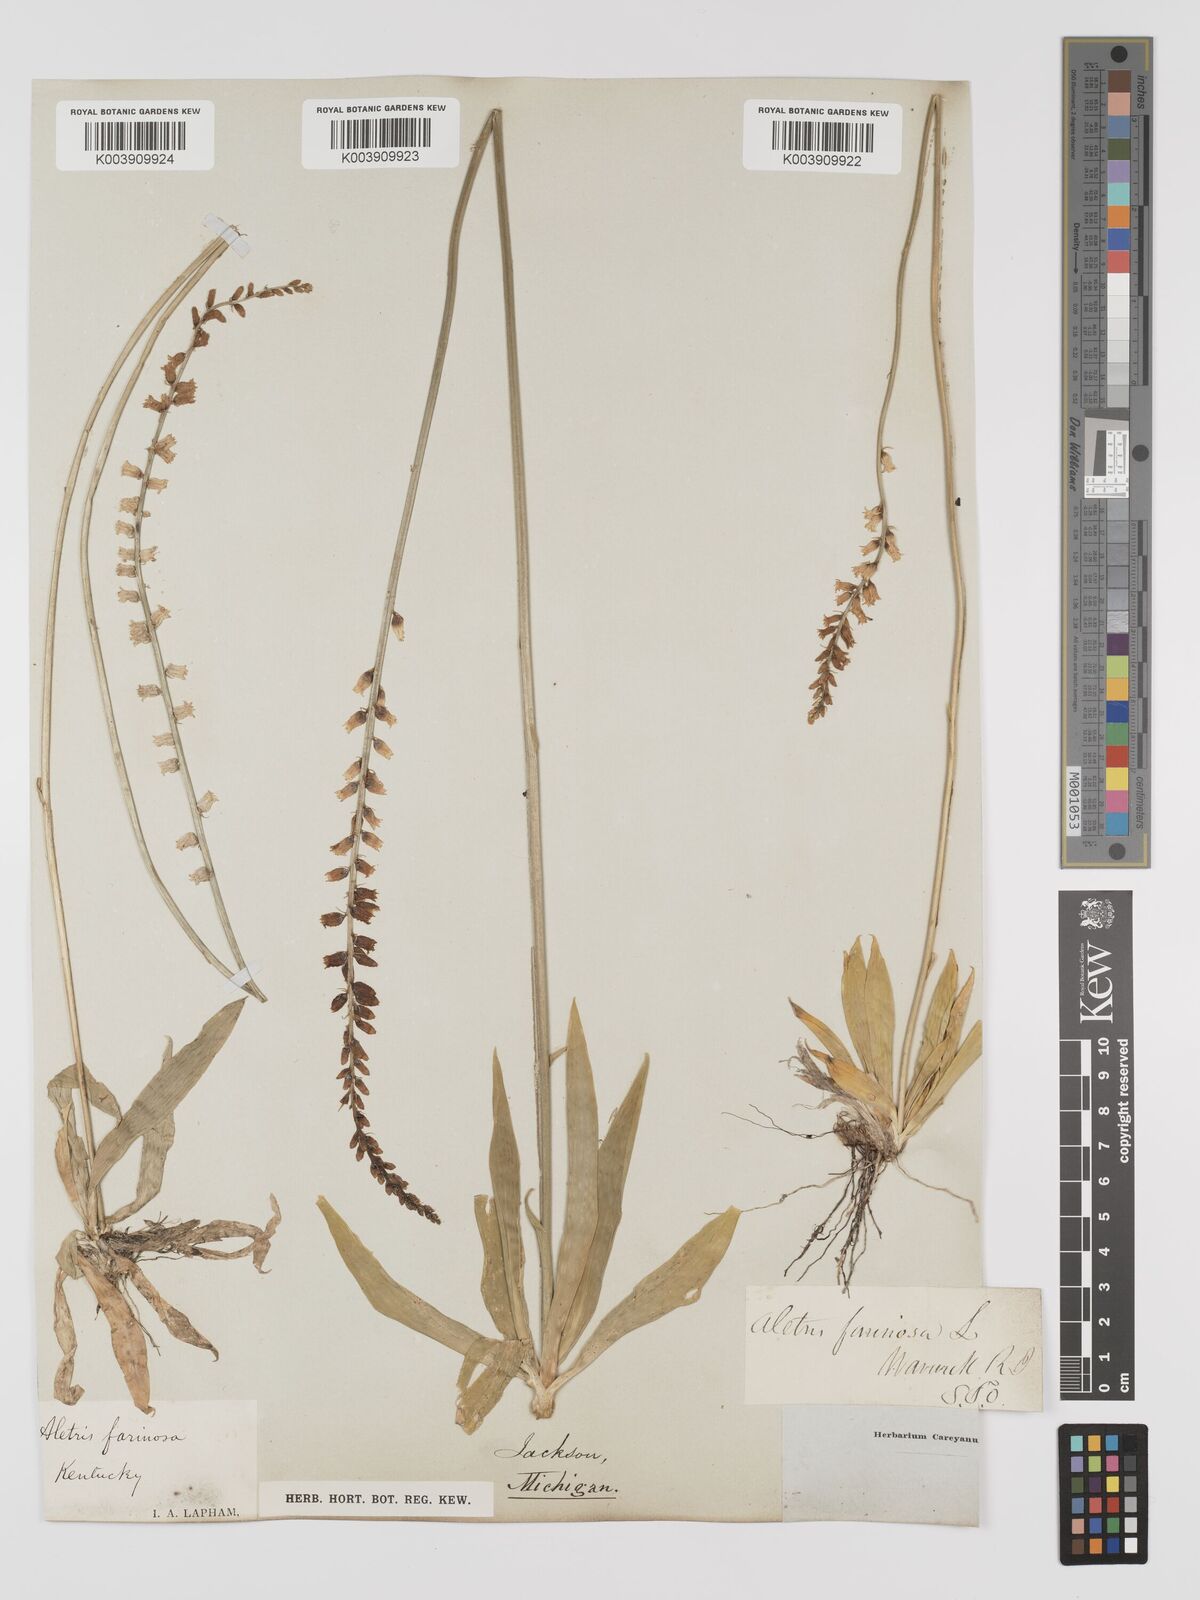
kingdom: Plantae
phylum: Tracheophyta
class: Liliopsida
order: Dioscoreales
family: Nartheciaceae
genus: Aletris
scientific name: Aletris farinosa
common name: Colicroot
